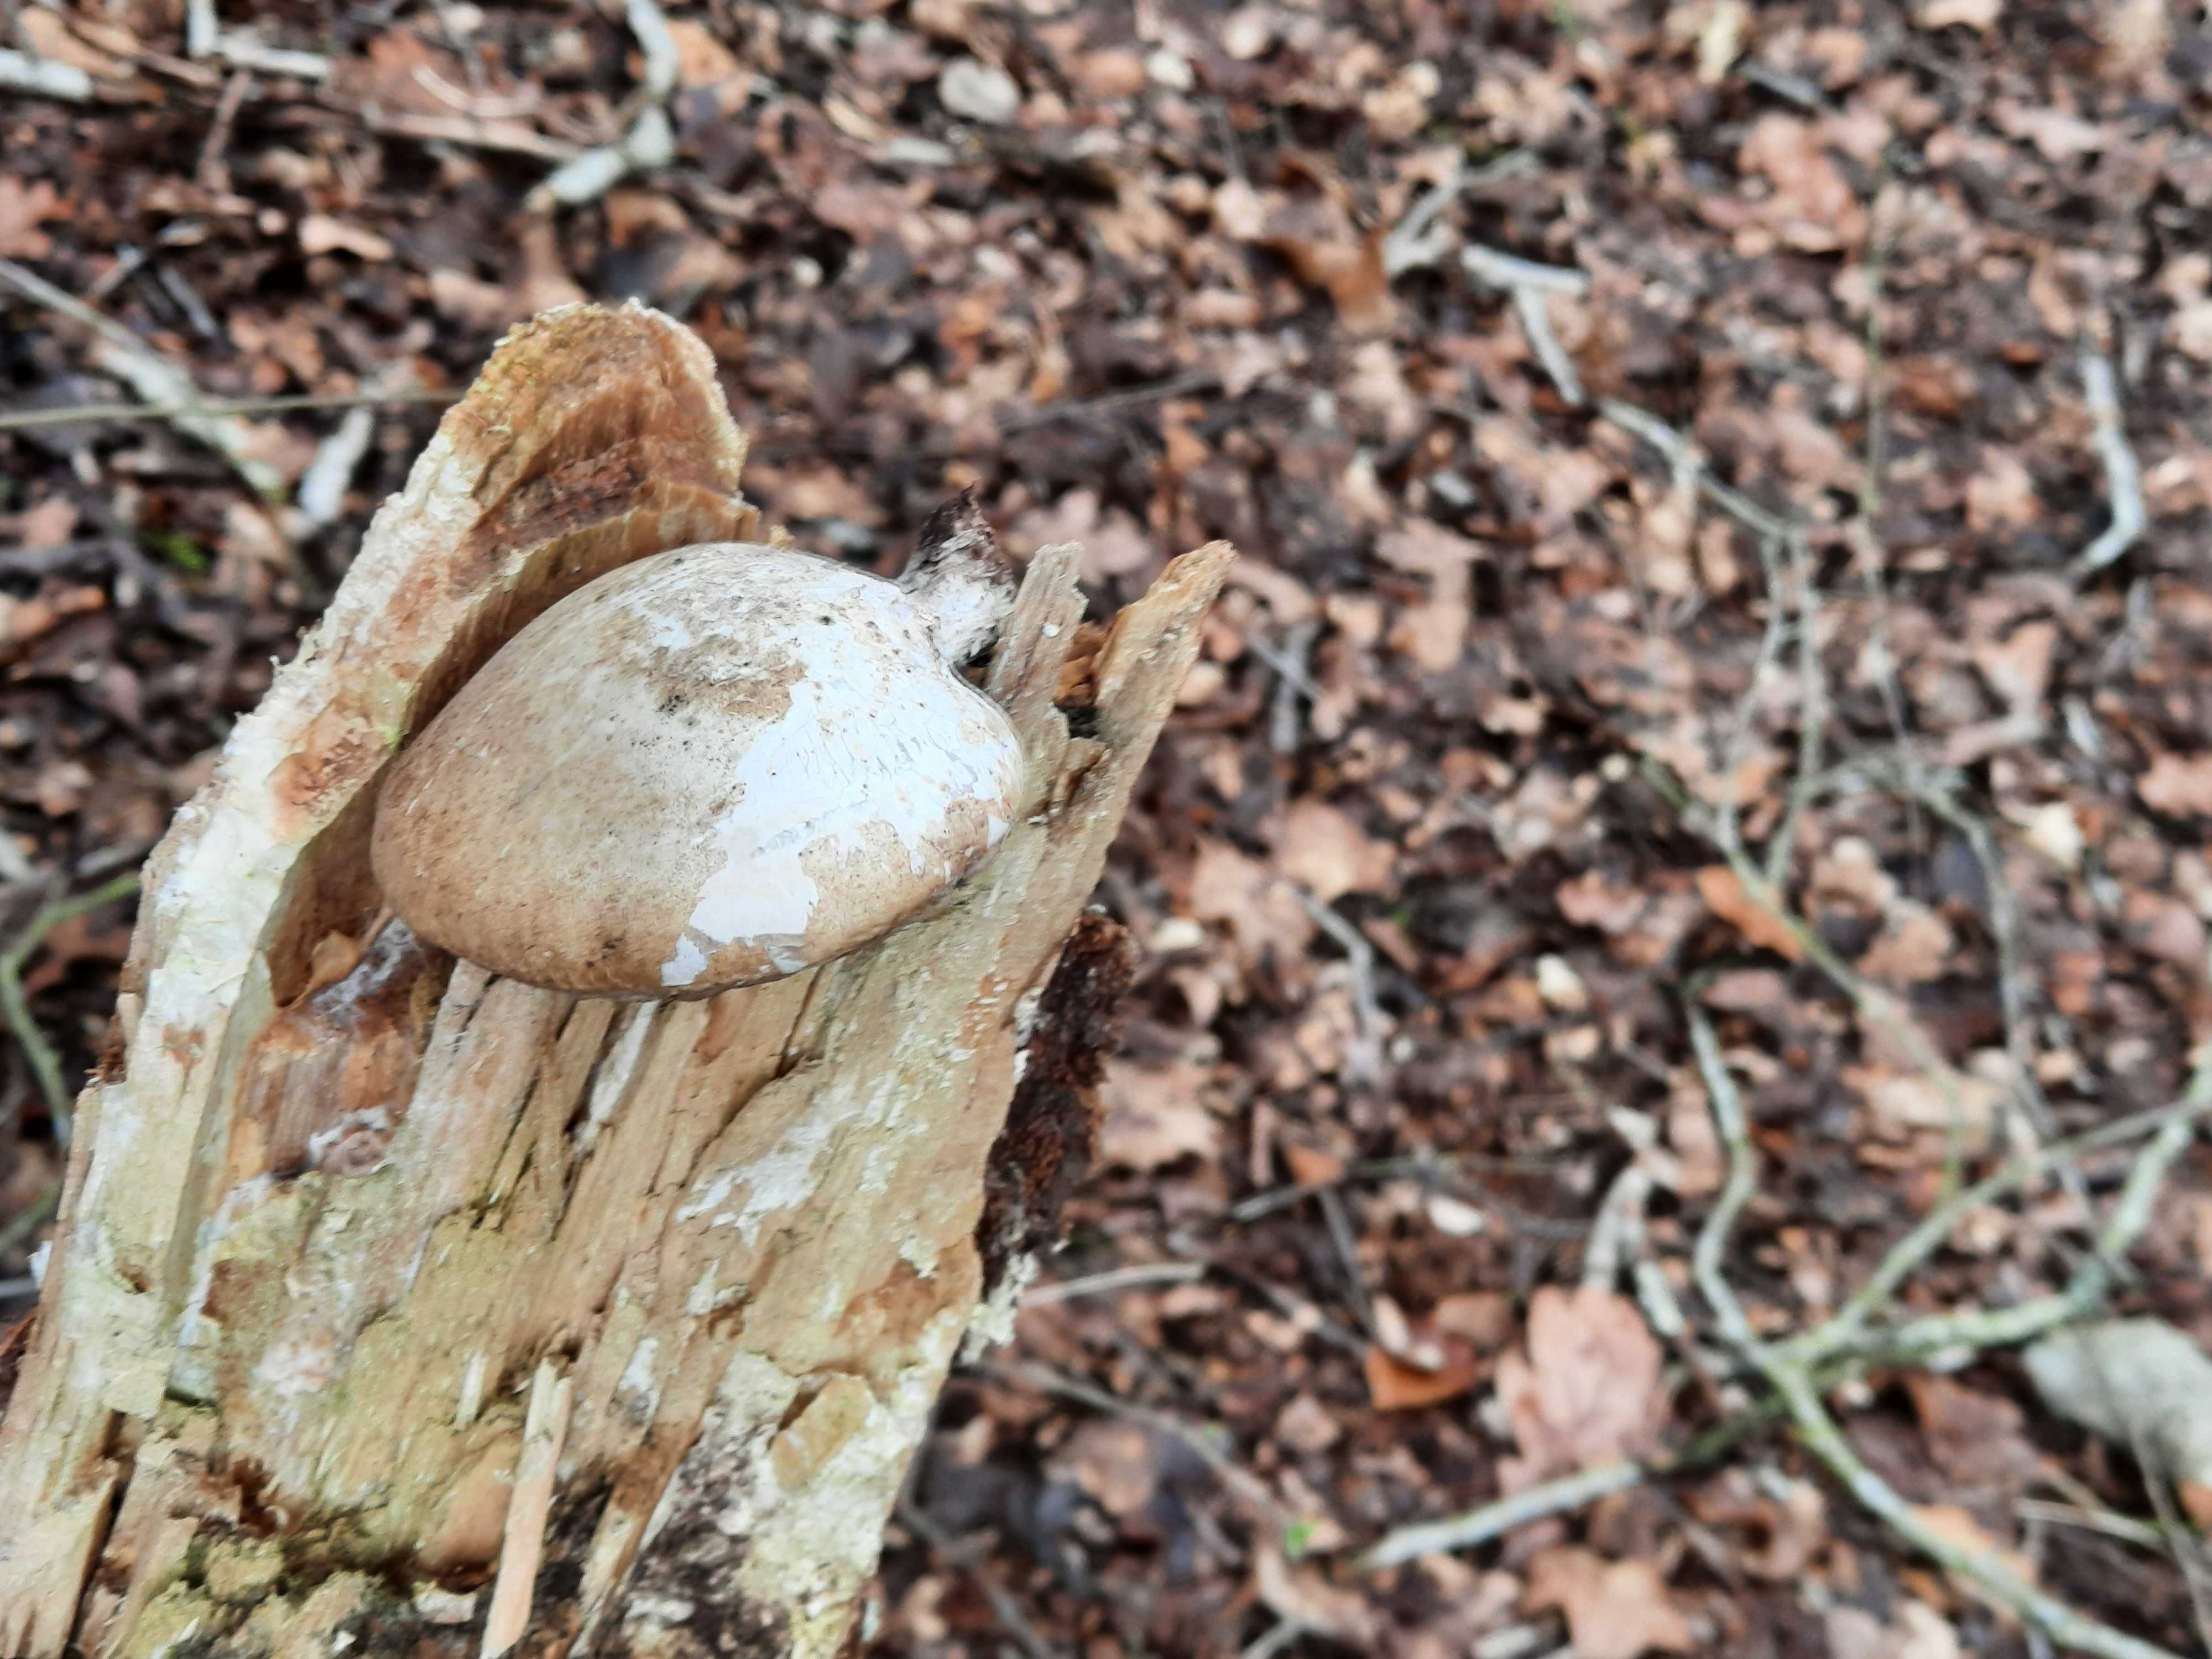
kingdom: Fungi
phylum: Basidiomycota
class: Agaricomycetes
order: Polyporales
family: Fomitopsidaceae
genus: Fomitopsis
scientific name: Fomitopsis betulina
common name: birkeporesvamp
